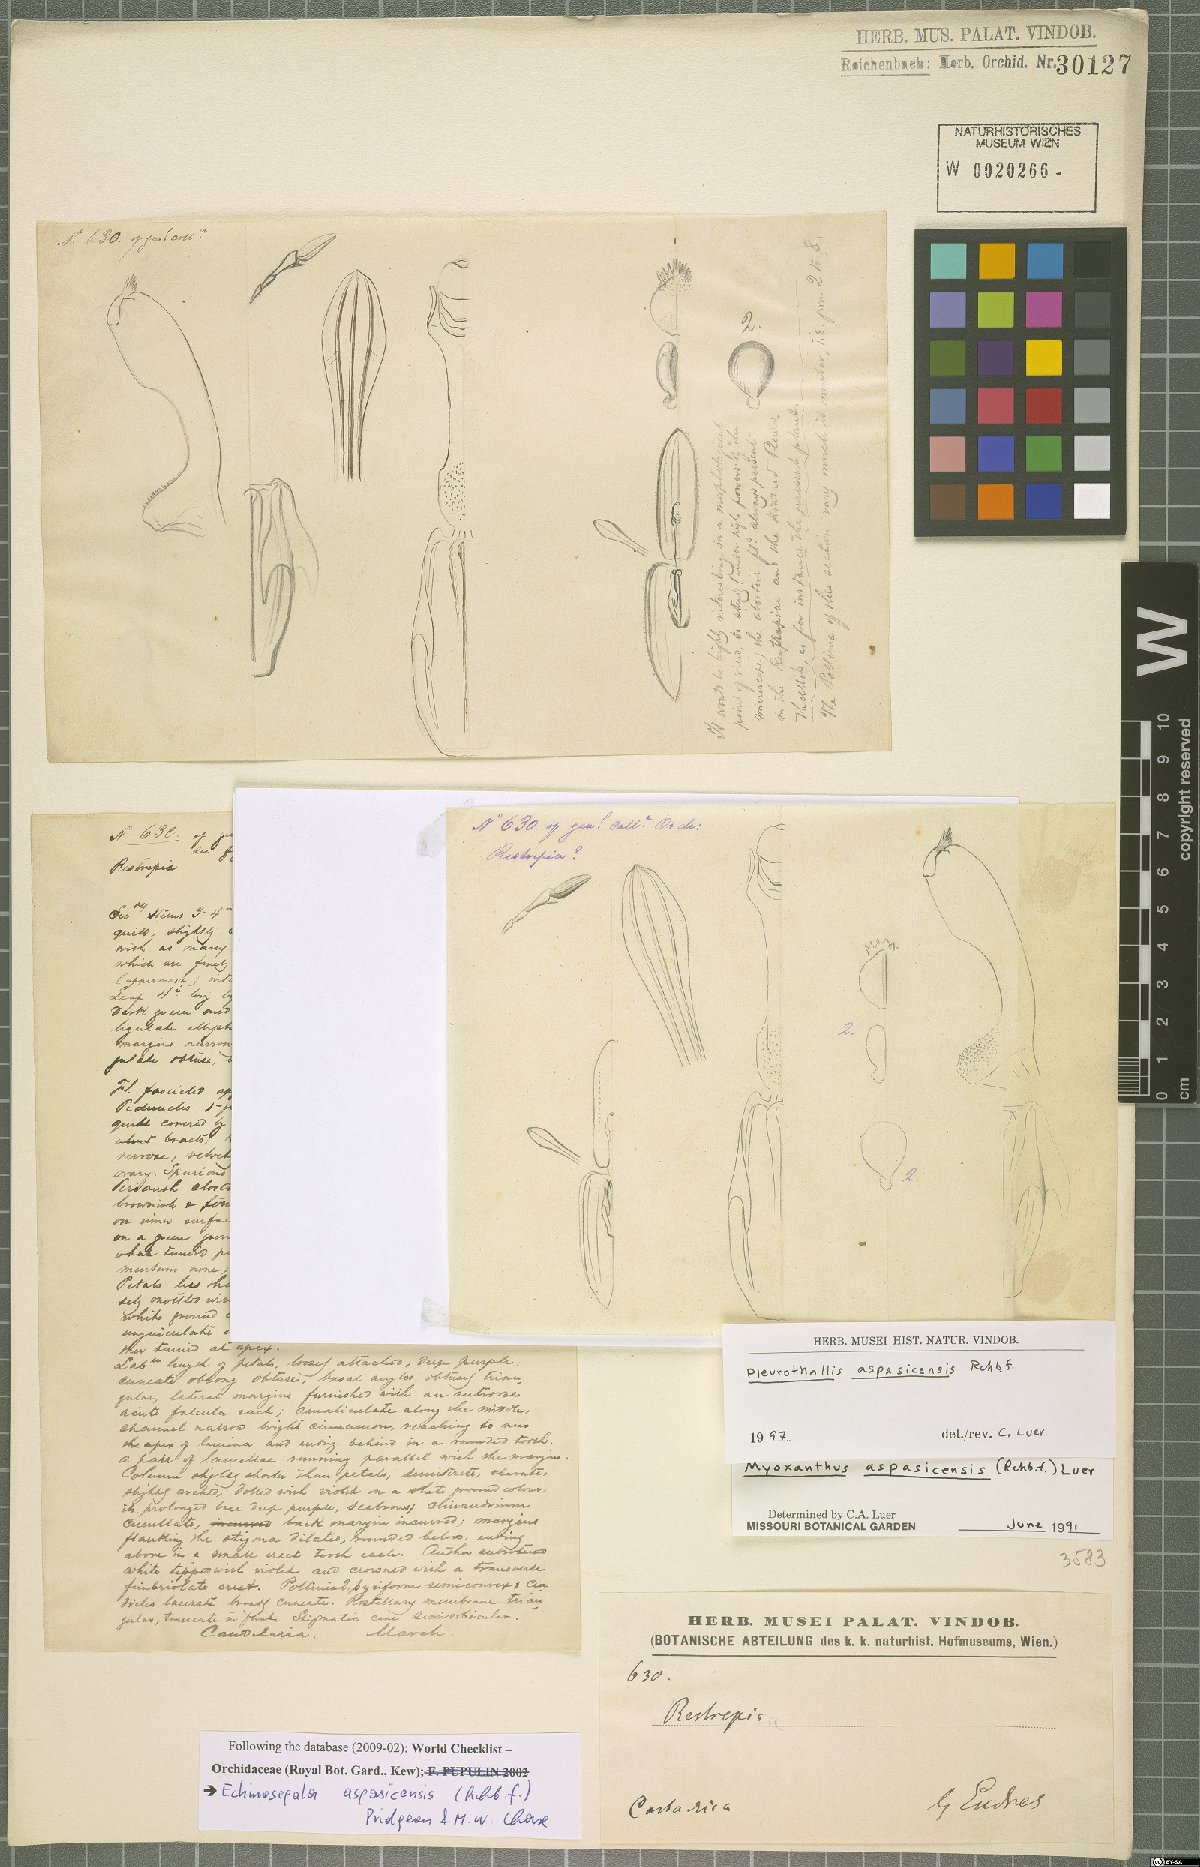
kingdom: Plantae
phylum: Tracheophyta
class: Liliopsida
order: Asparagales
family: Orchidaceae
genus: Echinosepala
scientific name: Echinosepala aspasicensis
